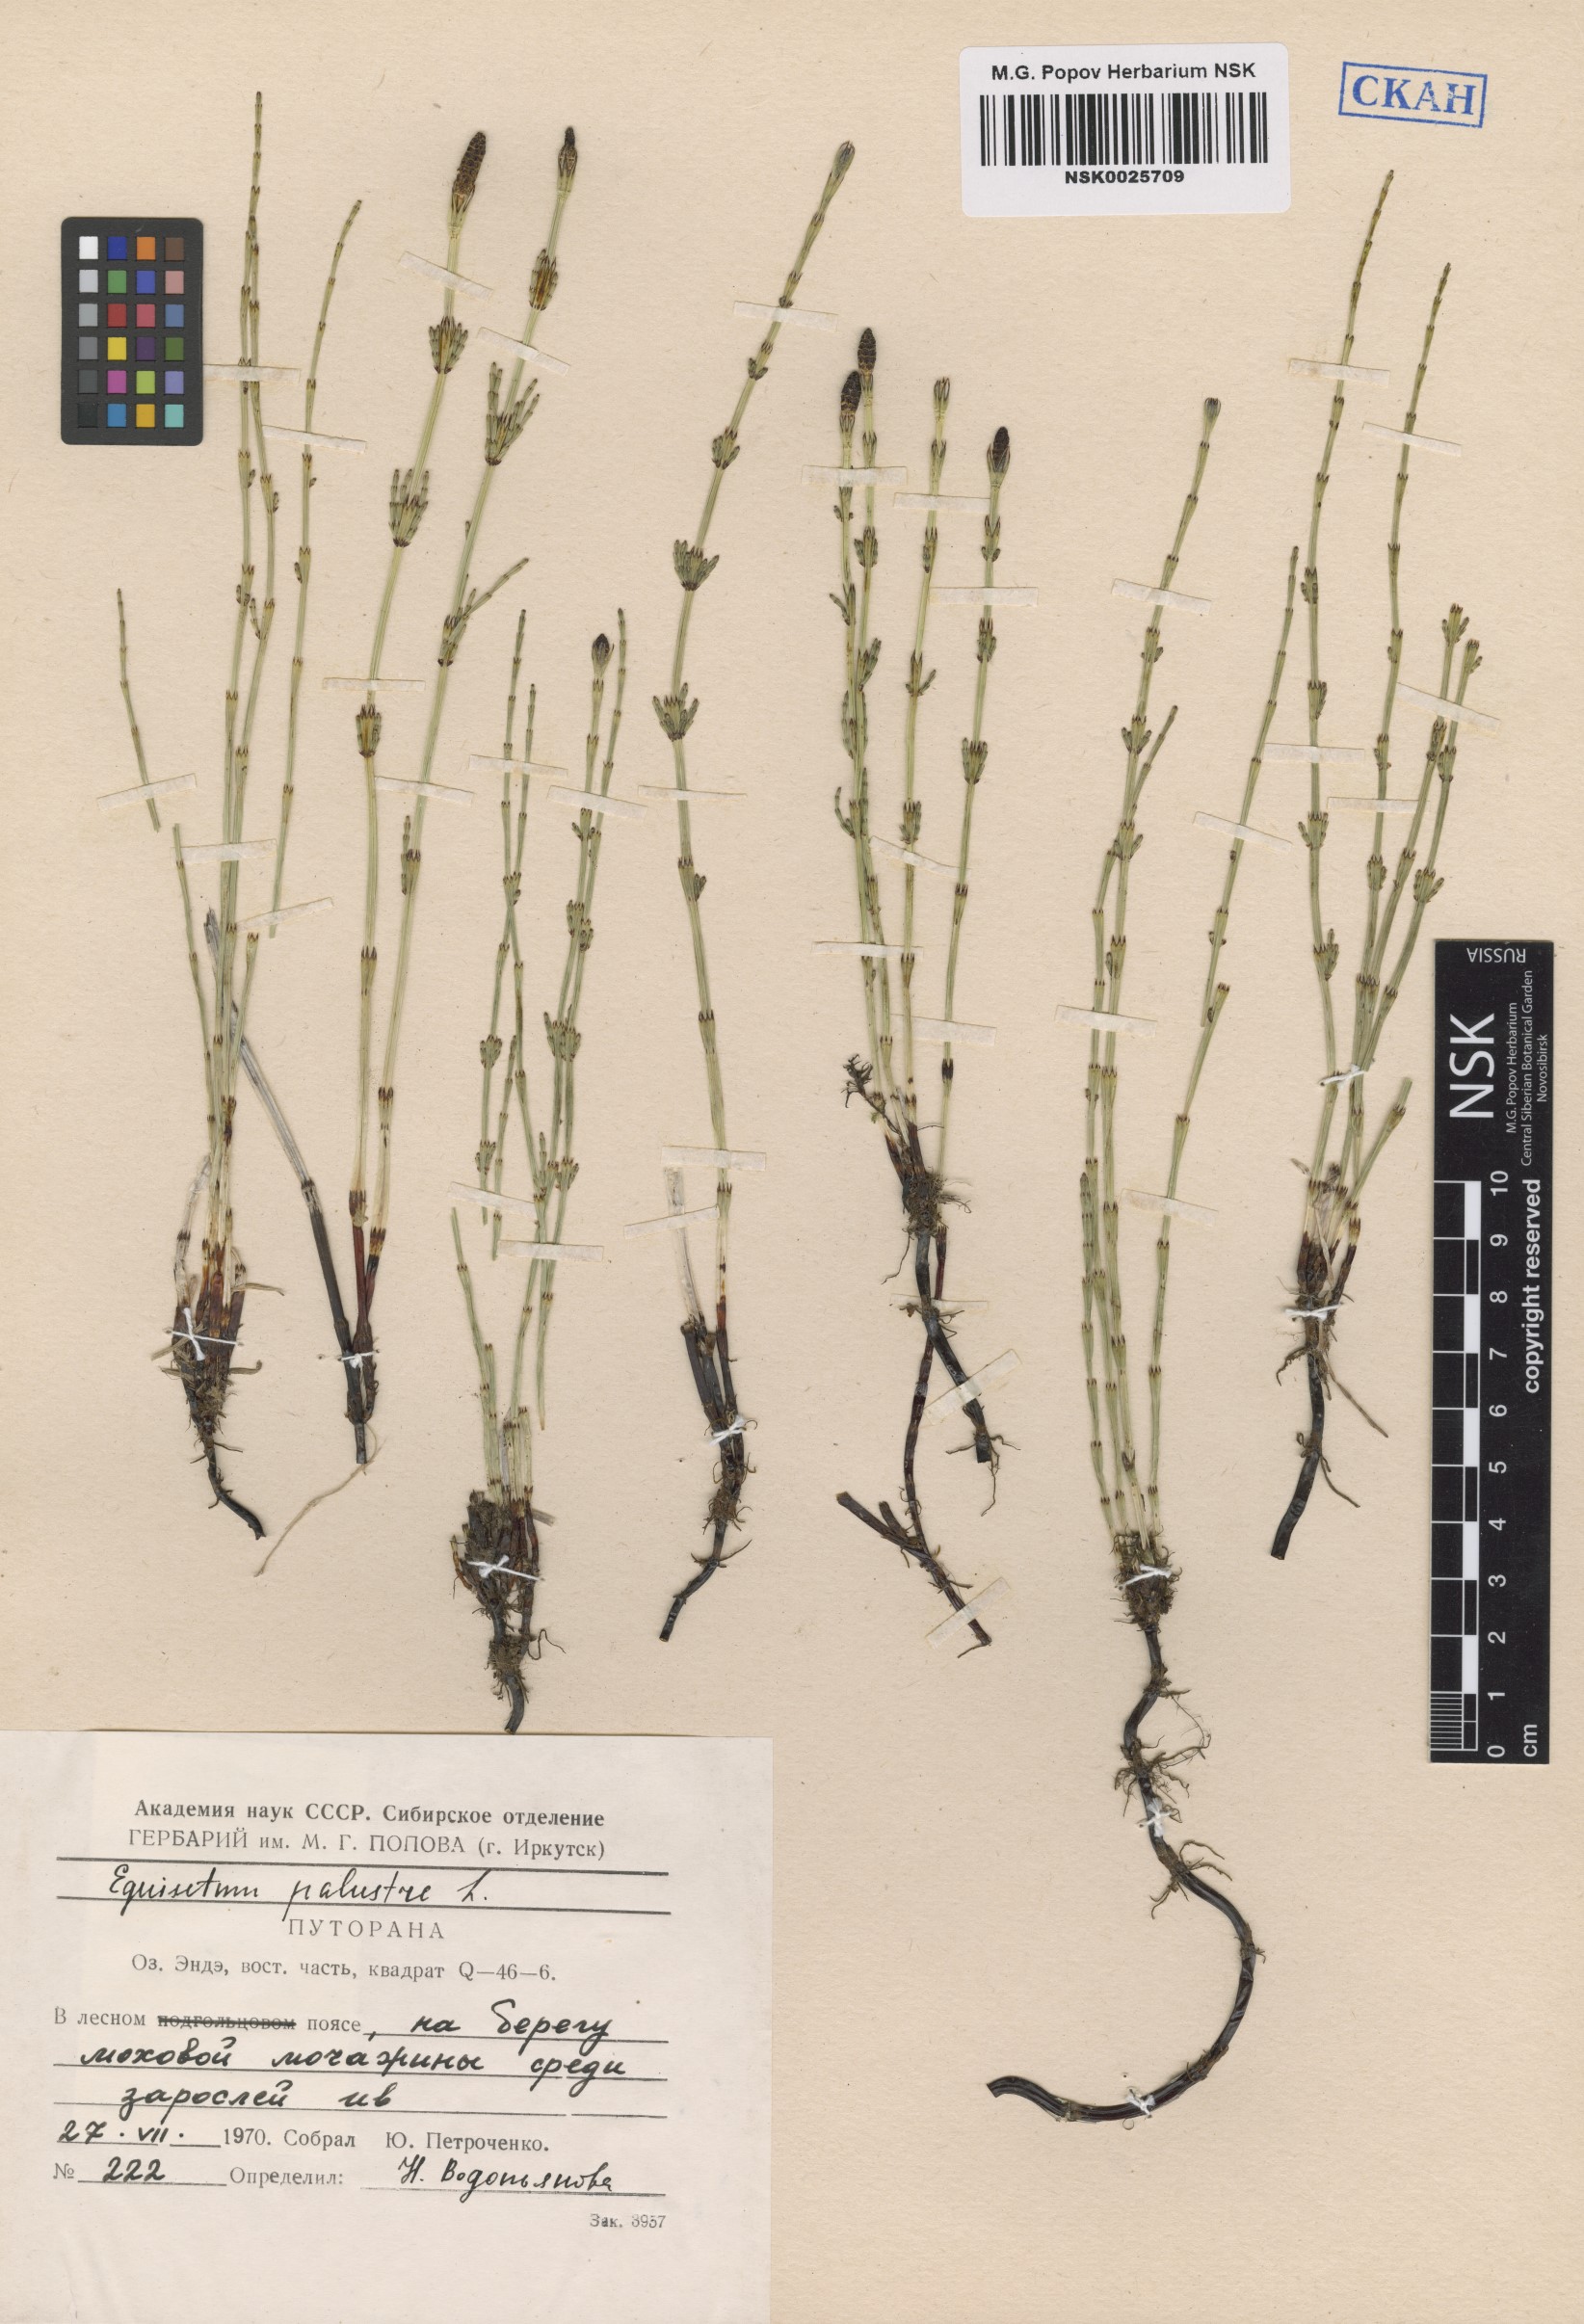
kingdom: Plantae
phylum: Tracheophyta
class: Polypodiopsida
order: Equisetales
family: Equisetaceae
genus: Equisetum
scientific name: Equisetum palustre
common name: Marsh horsetail
